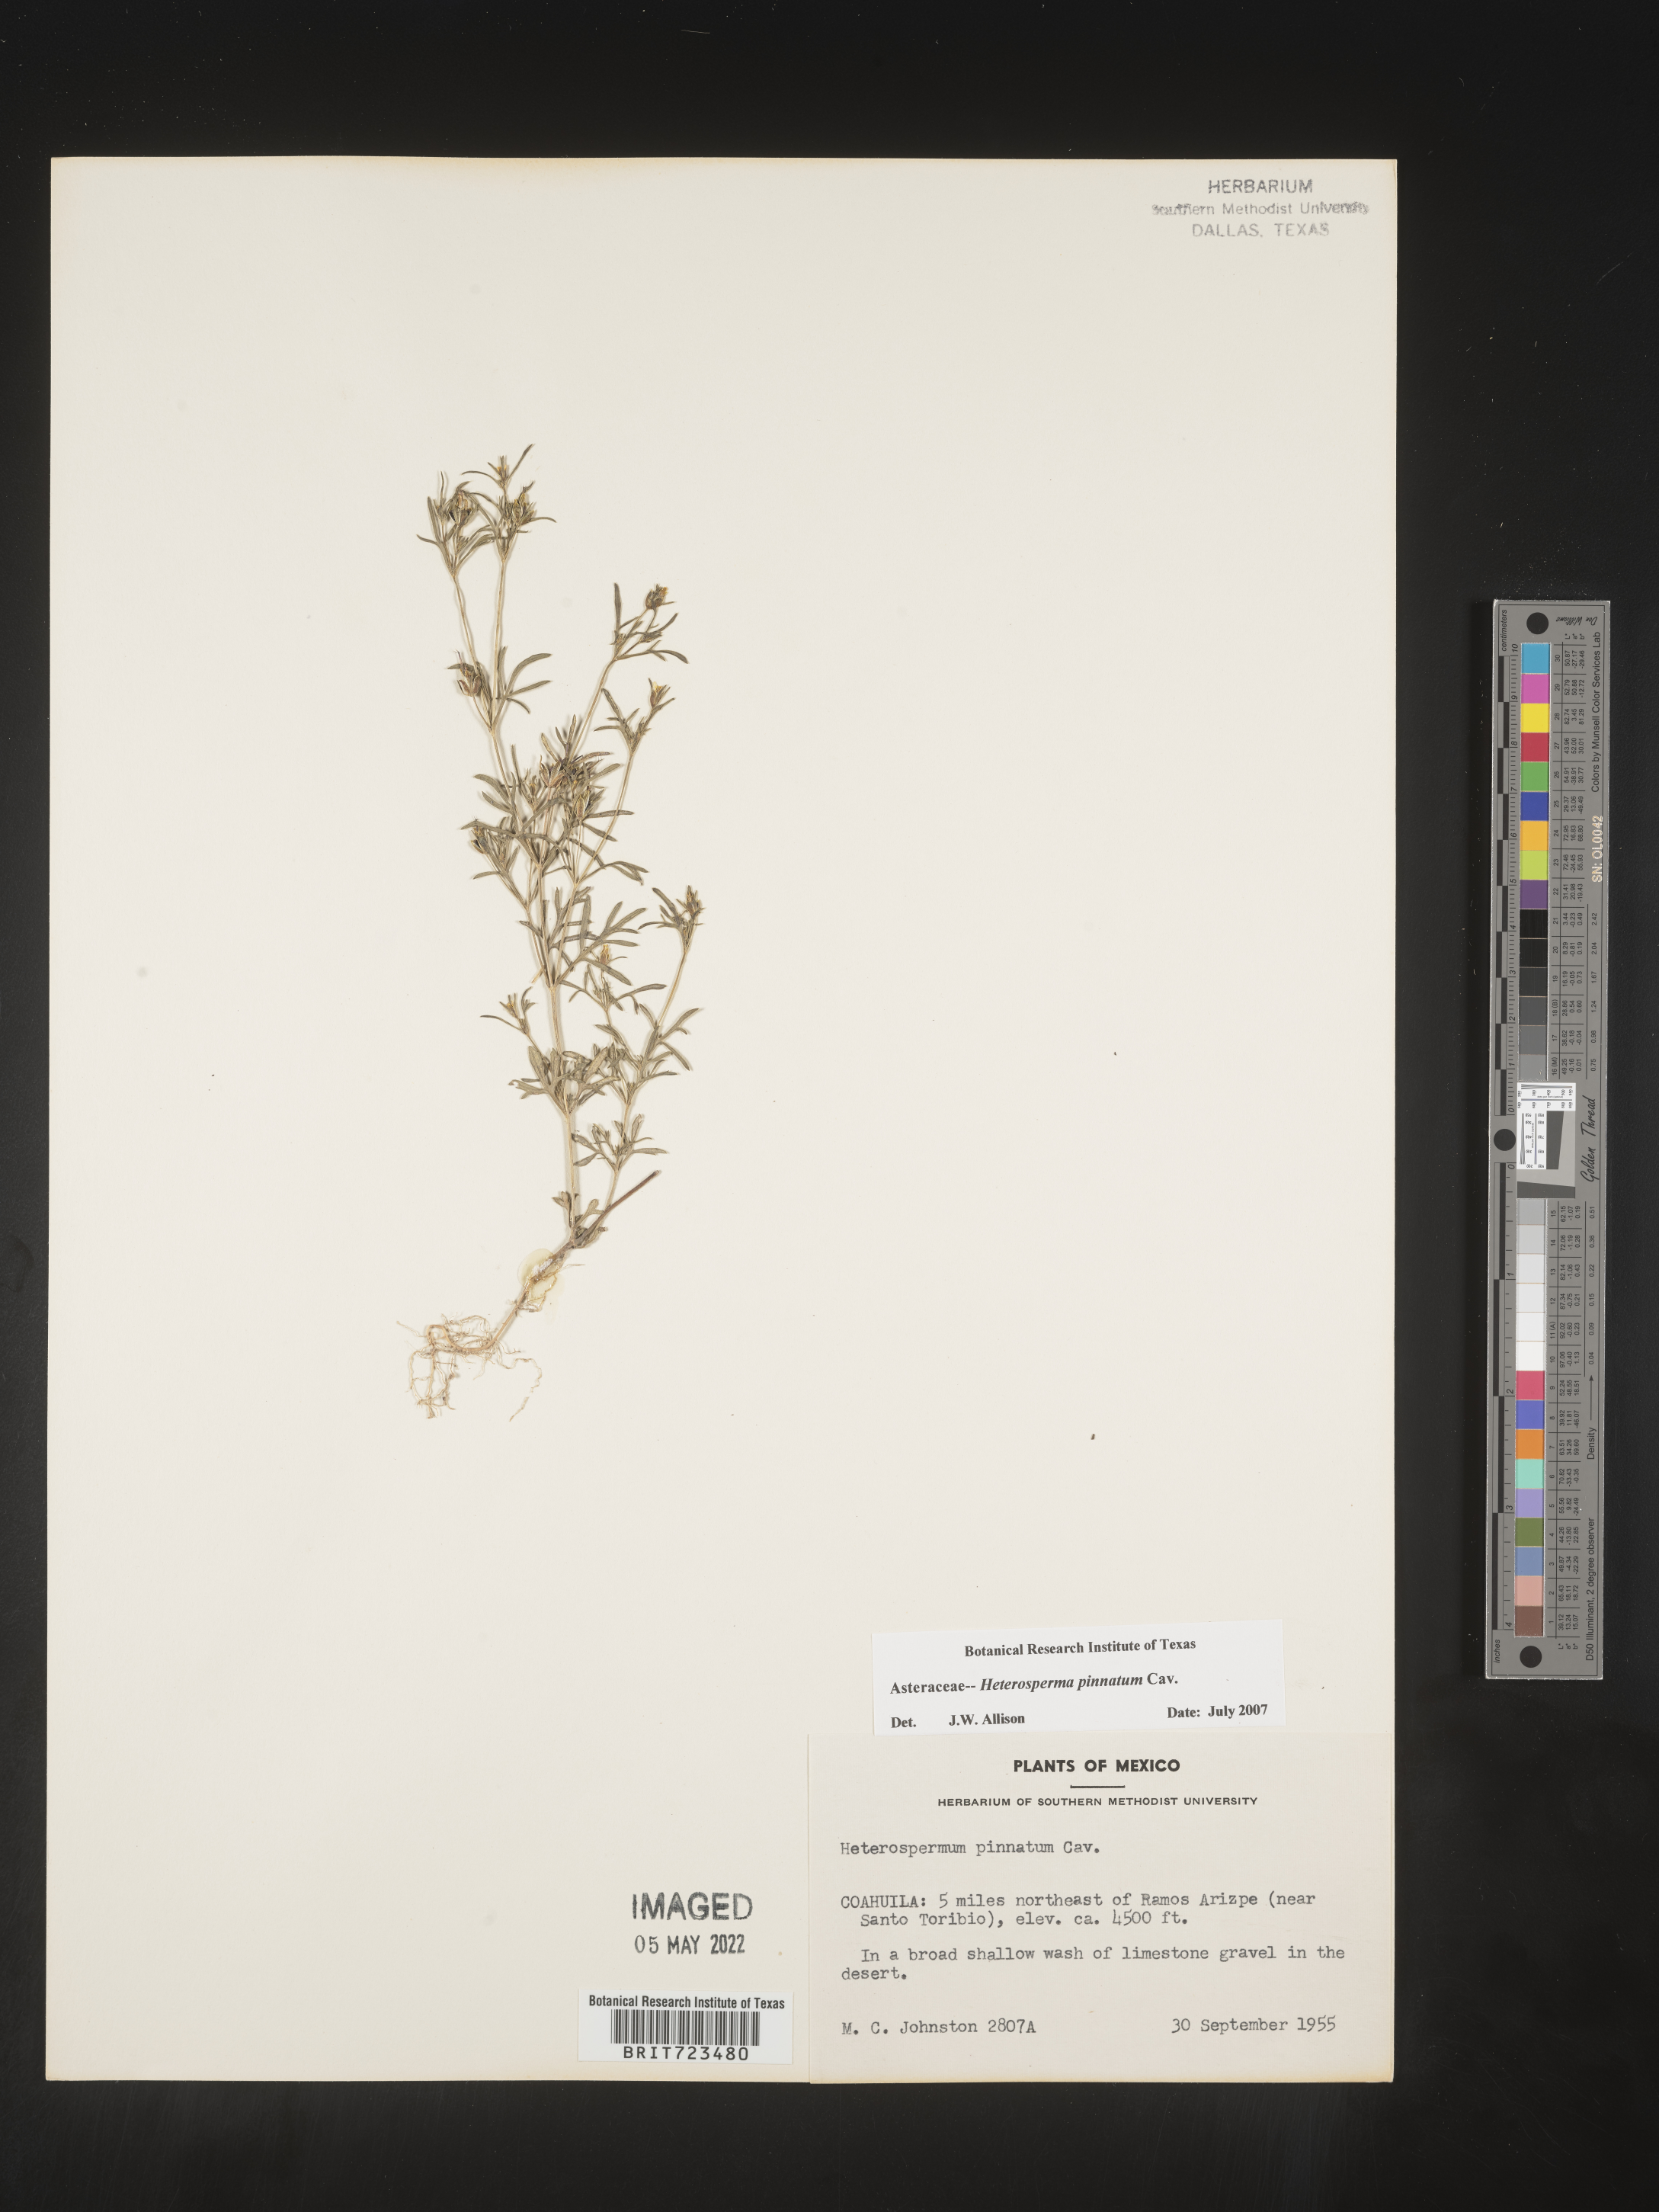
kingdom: Plantae
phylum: Tracheophyta
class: Magnoliopsida
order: Asterales
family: Asteraceae
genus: Heterosperma
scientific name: Heterosperma
